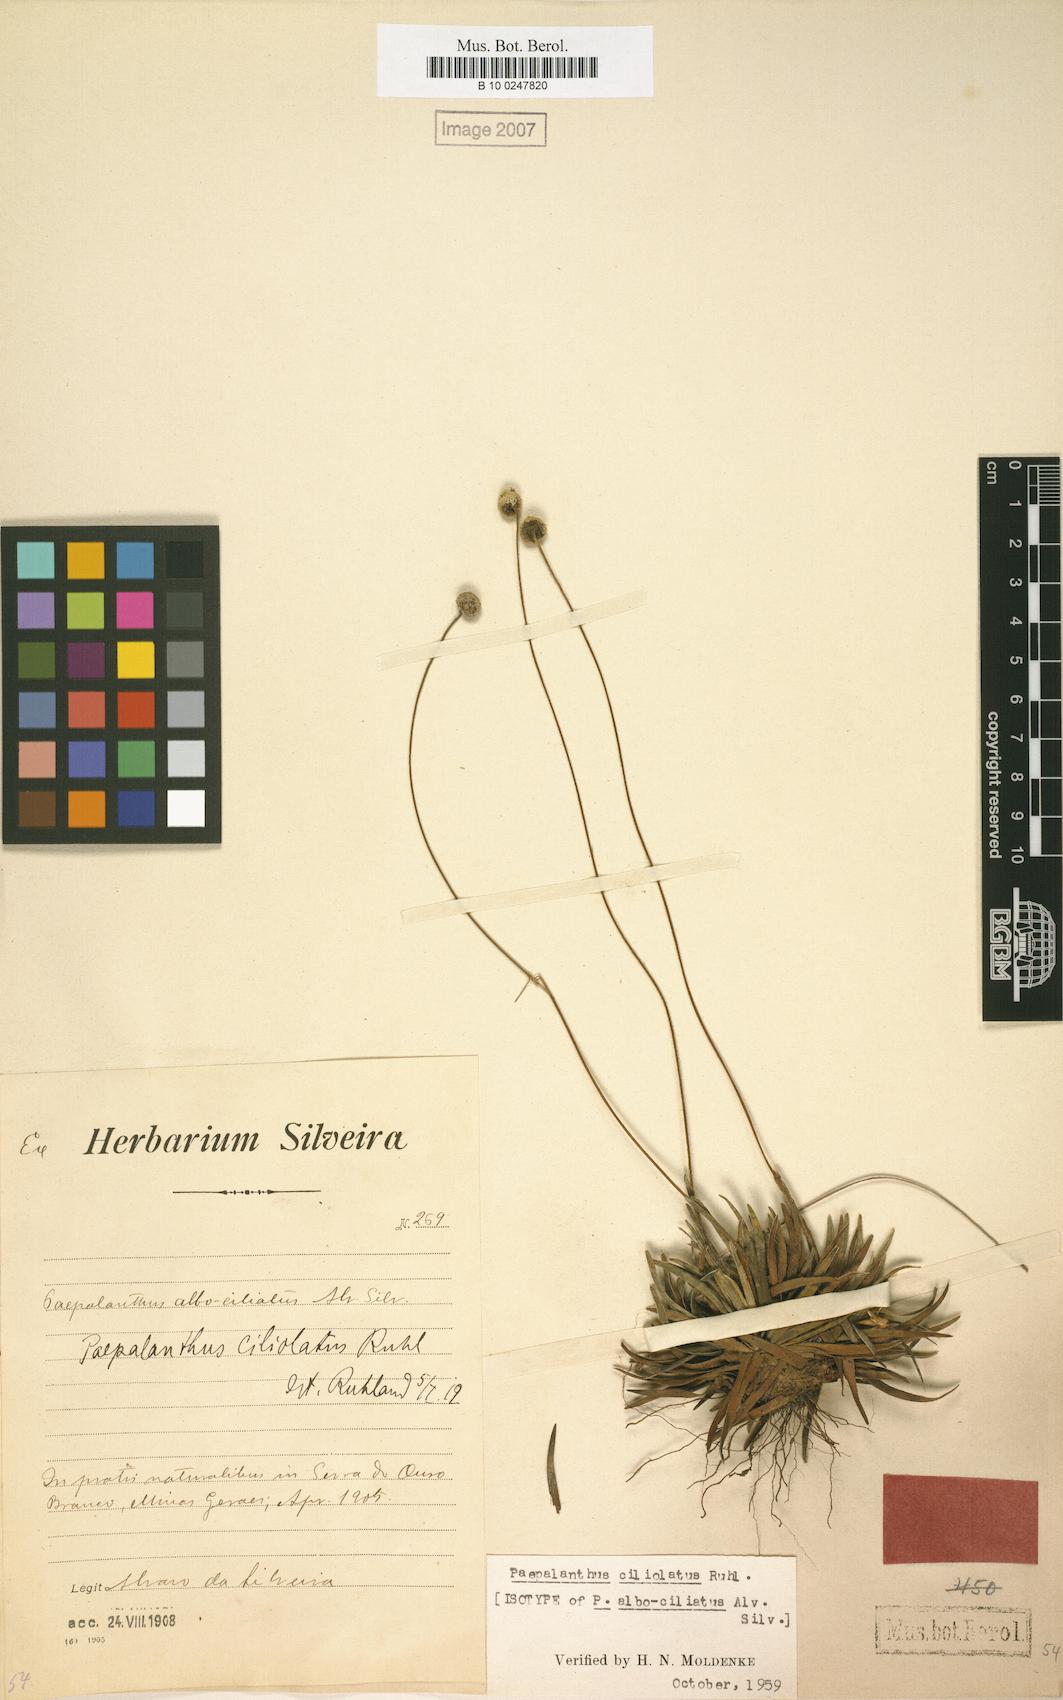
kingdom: Plantae
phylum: Tracheophyta
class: Liliopsida
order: Poales
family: Eriocaulaceae
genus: Paepalanthus
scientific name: Paepalanthus ciliolatus
